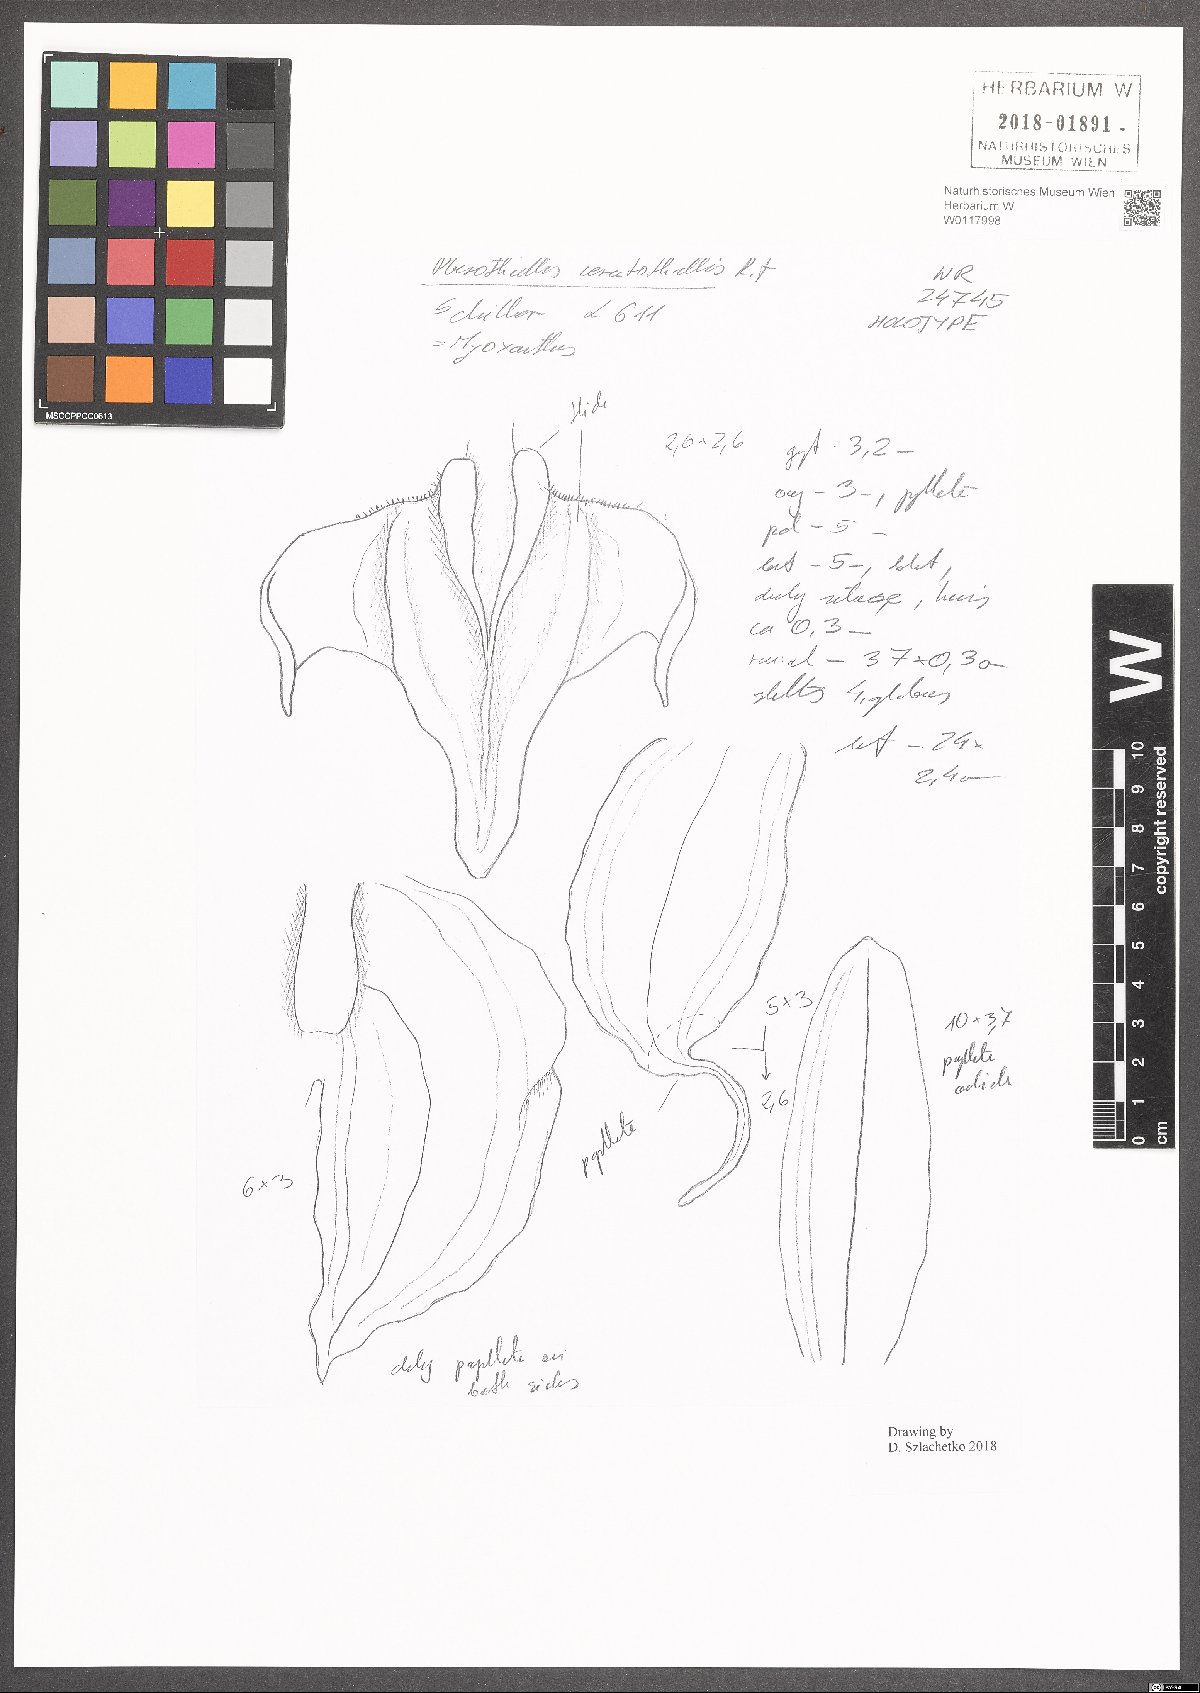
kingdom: Plantae
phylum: Tracheophyta
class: Liliopsida
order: Asparagales
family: Orchidaceae
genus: Myoxanthus
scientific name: Myoxanthus ceratothallis
